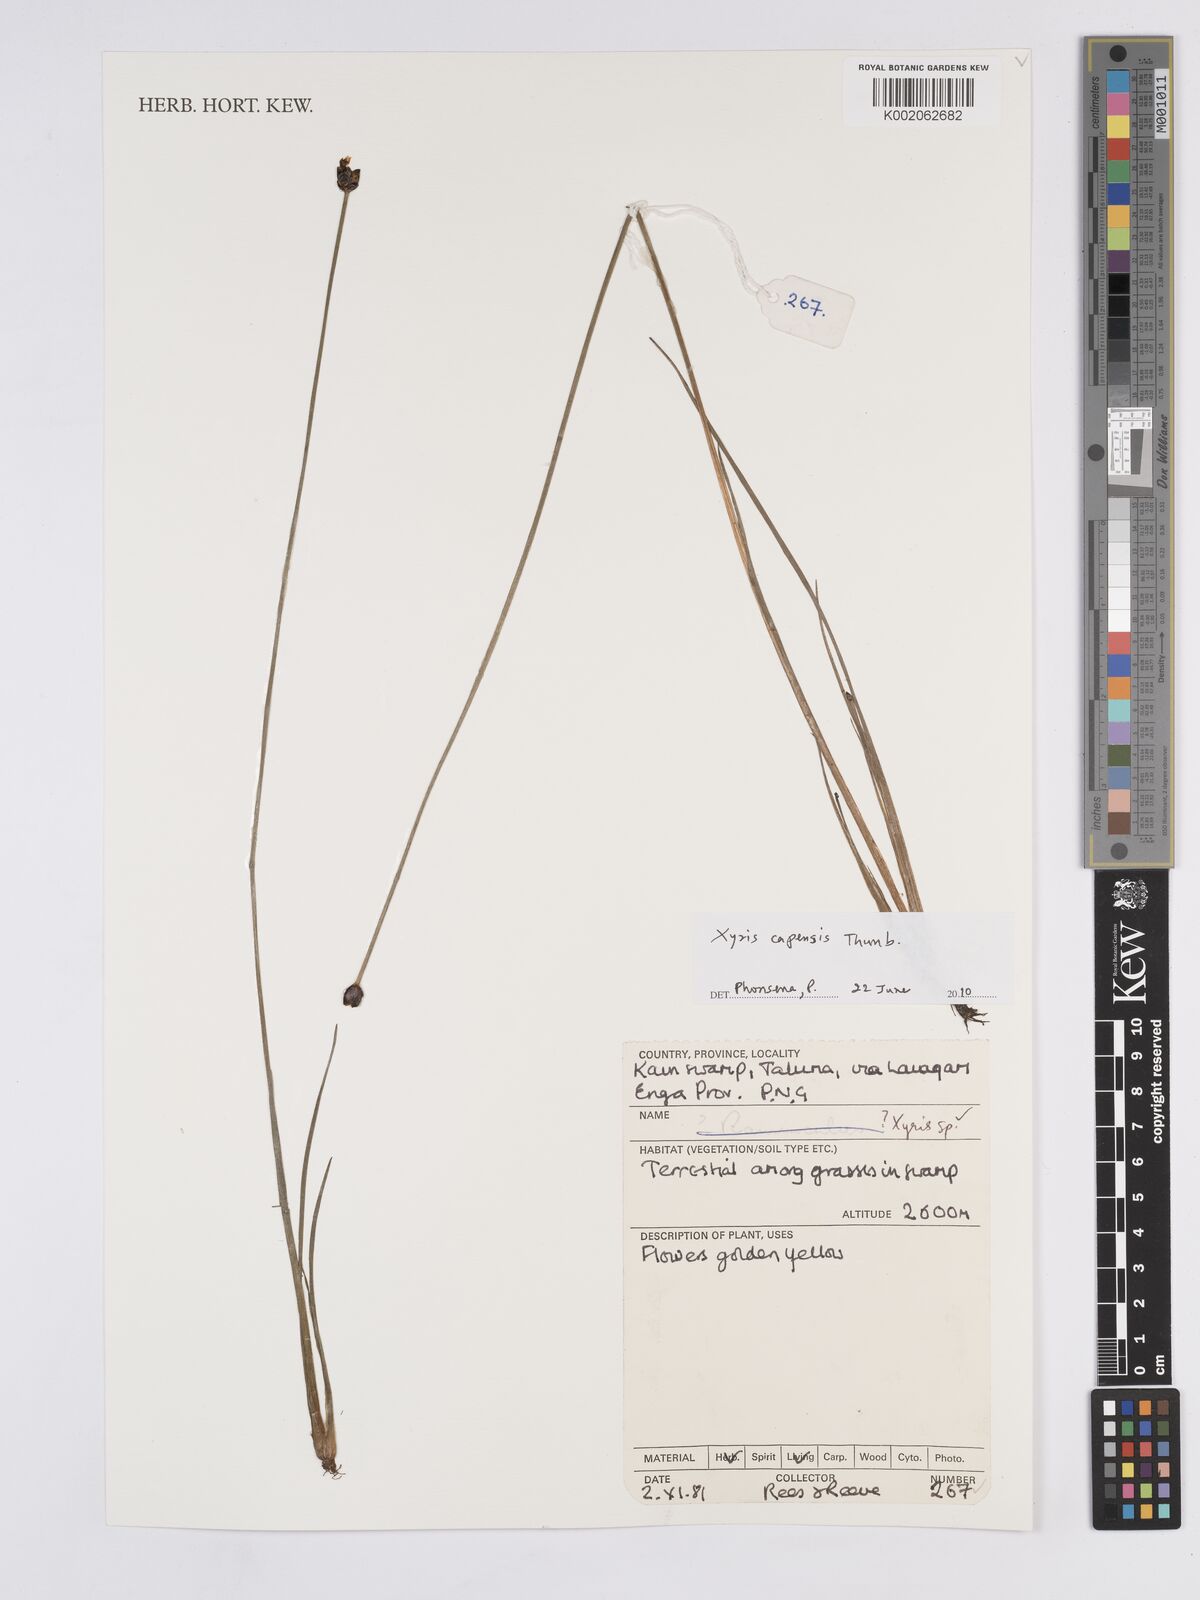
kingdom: Plantae
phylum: Tracheophyta
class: Liliopsida
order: Poales
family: Xyridaceae
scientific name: Xyridaceae
